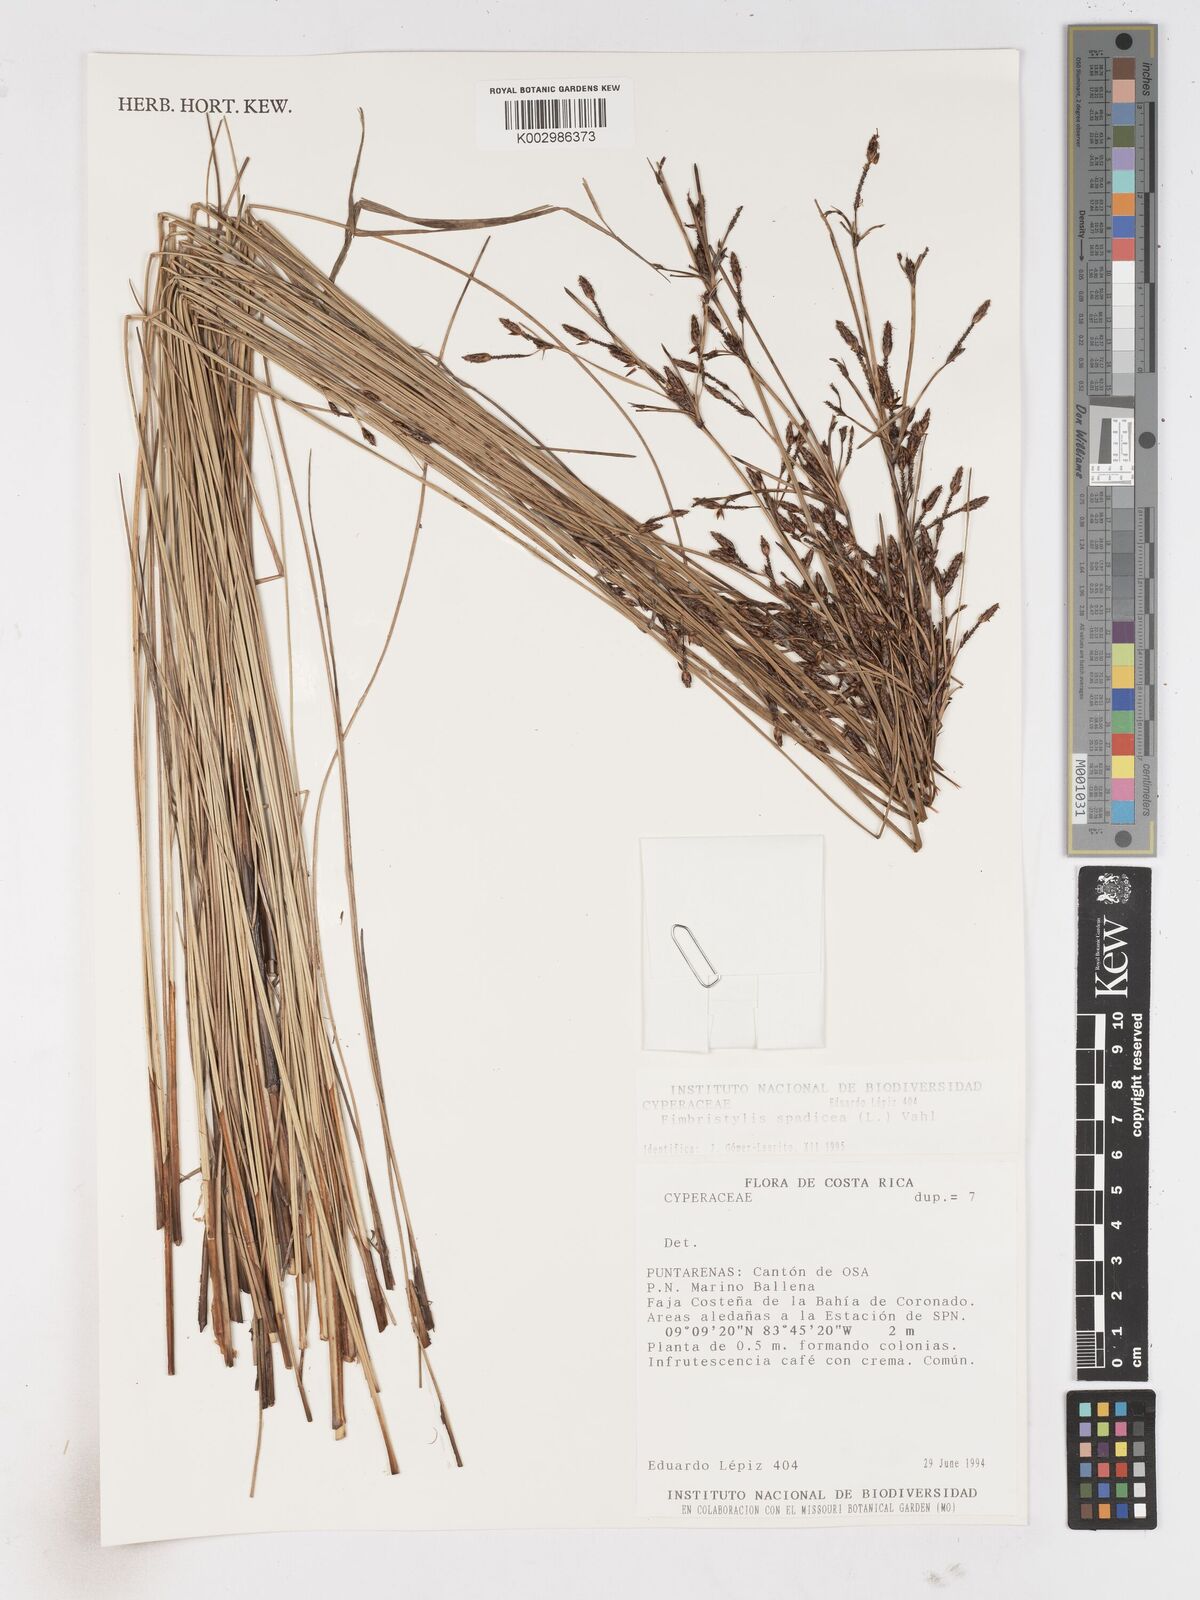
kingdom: Plantae
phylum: Tracheophyta
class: Liliopsida
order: Poales
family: Cyperaceae
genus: Fimbristylis
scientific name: Fimbristylis cymosa
